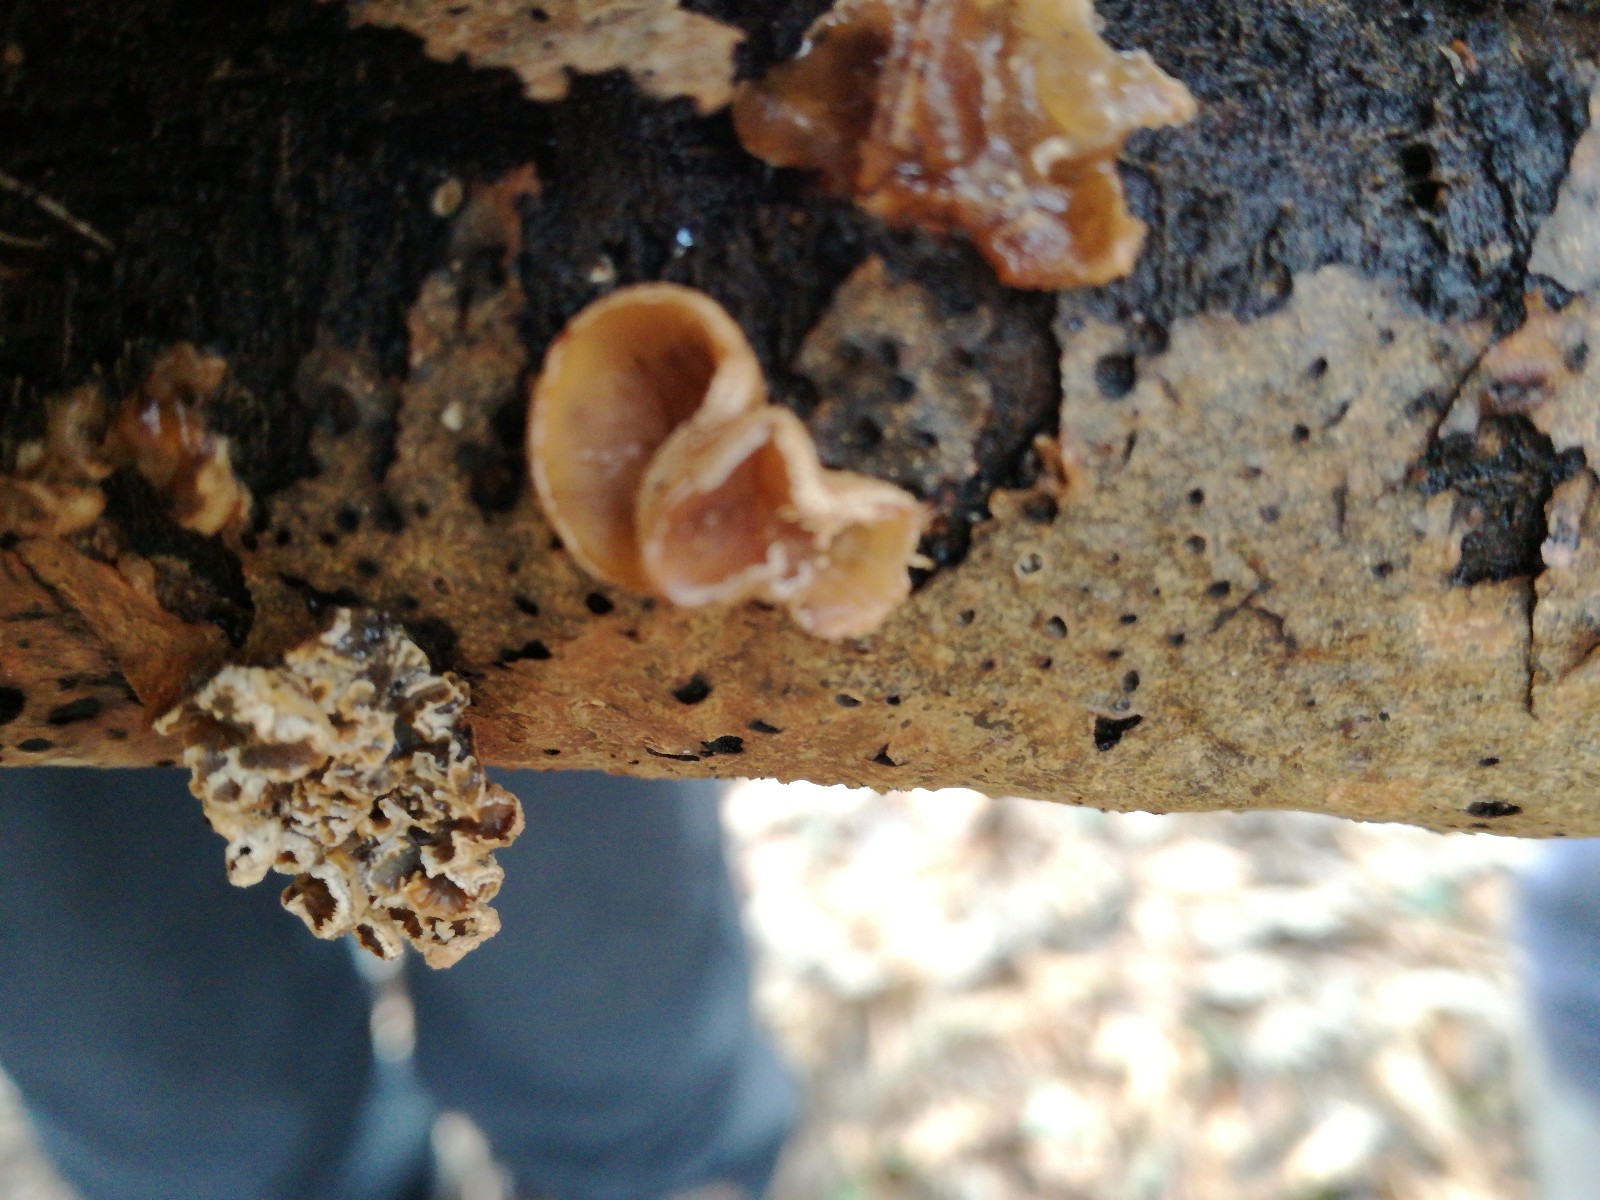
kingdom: Fungi
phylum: Basidiomycota
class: Agaricomycetes
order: Agaricales
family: Schizophyllaceae
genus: Schizophyllum
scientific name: Schizophyllum amplum
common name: poppel-hængeøre
